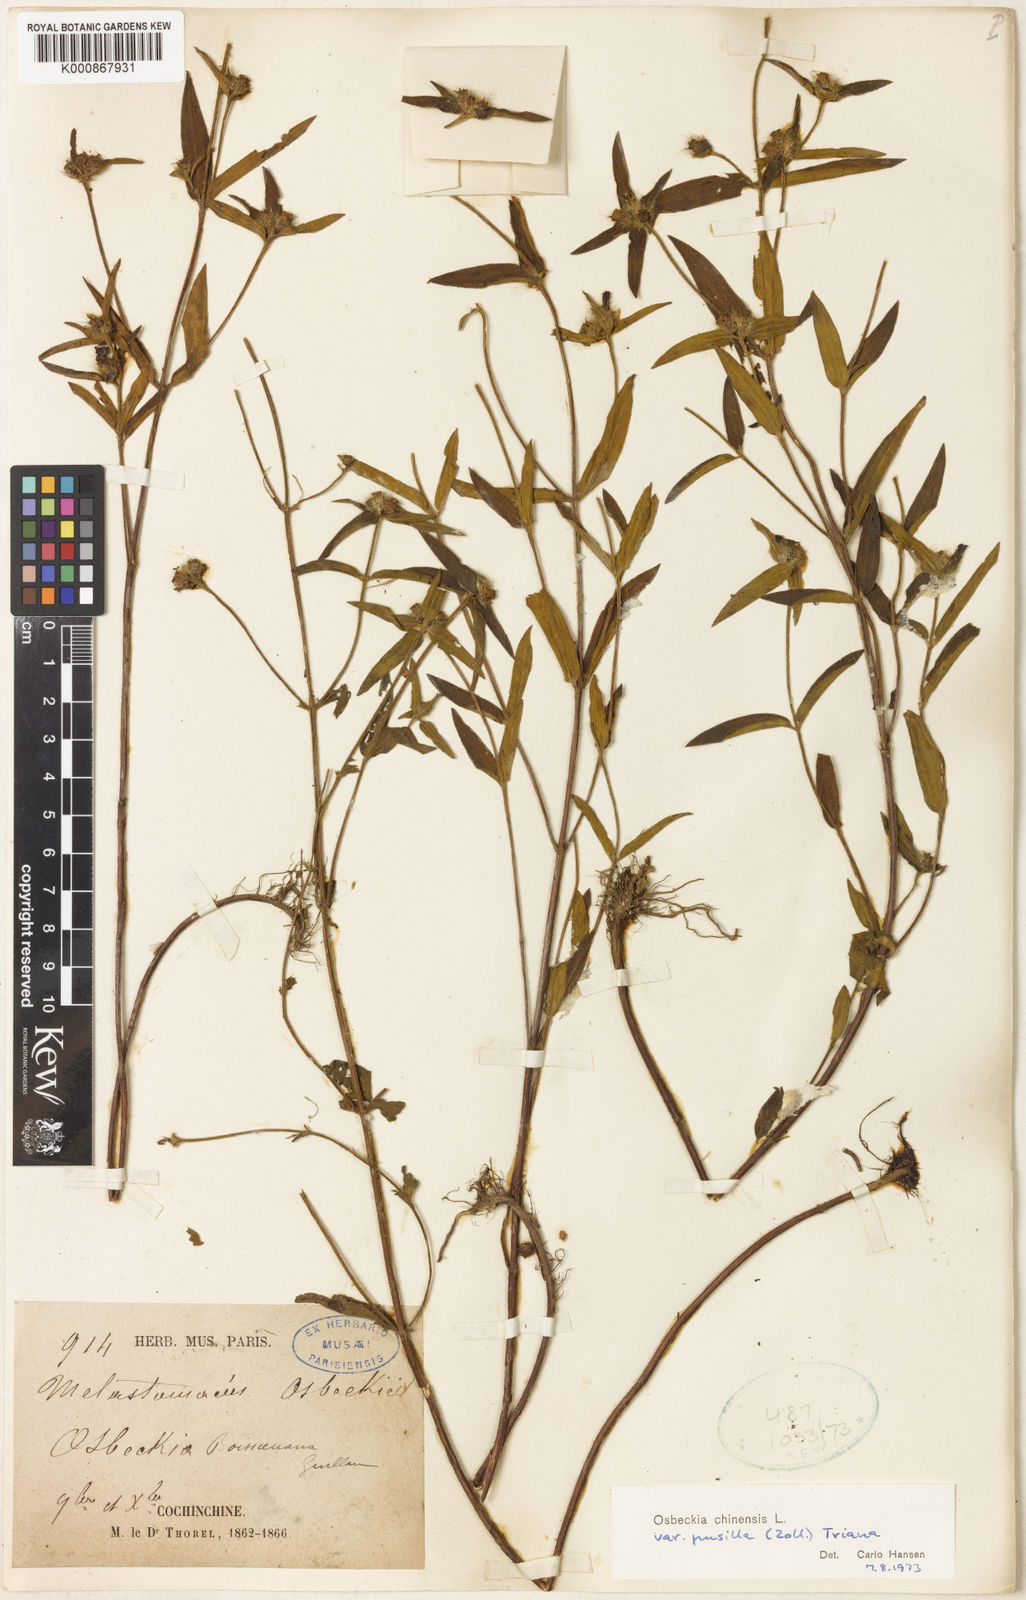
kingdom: Plantae
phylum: Tracheophyta
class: Magnoliopsida
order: Myrtales
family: Melastomataceae
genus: Osbeckia
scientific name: Osbeckia
